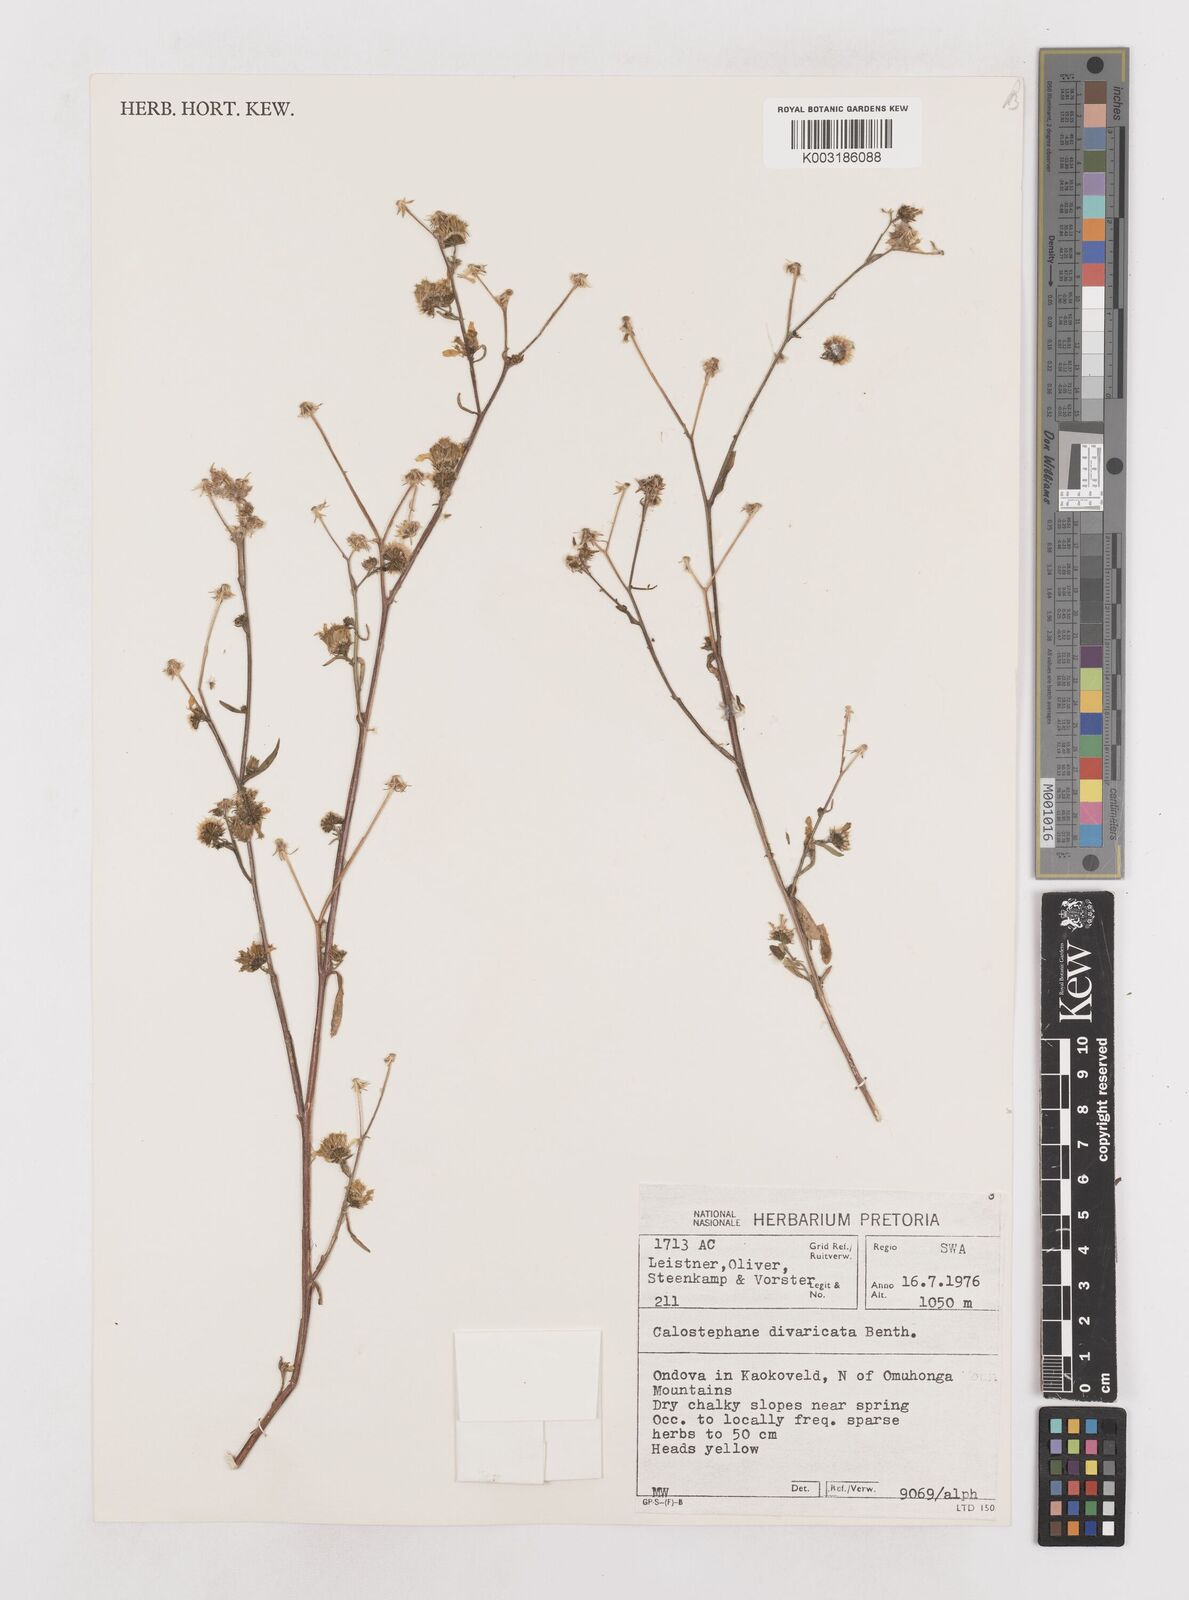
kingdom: Plantae
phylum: Tracheophyta
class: Magnoliopsida
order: Asterales
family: Asteraceae
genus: Calostephane
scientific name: Calostephane divaricata
